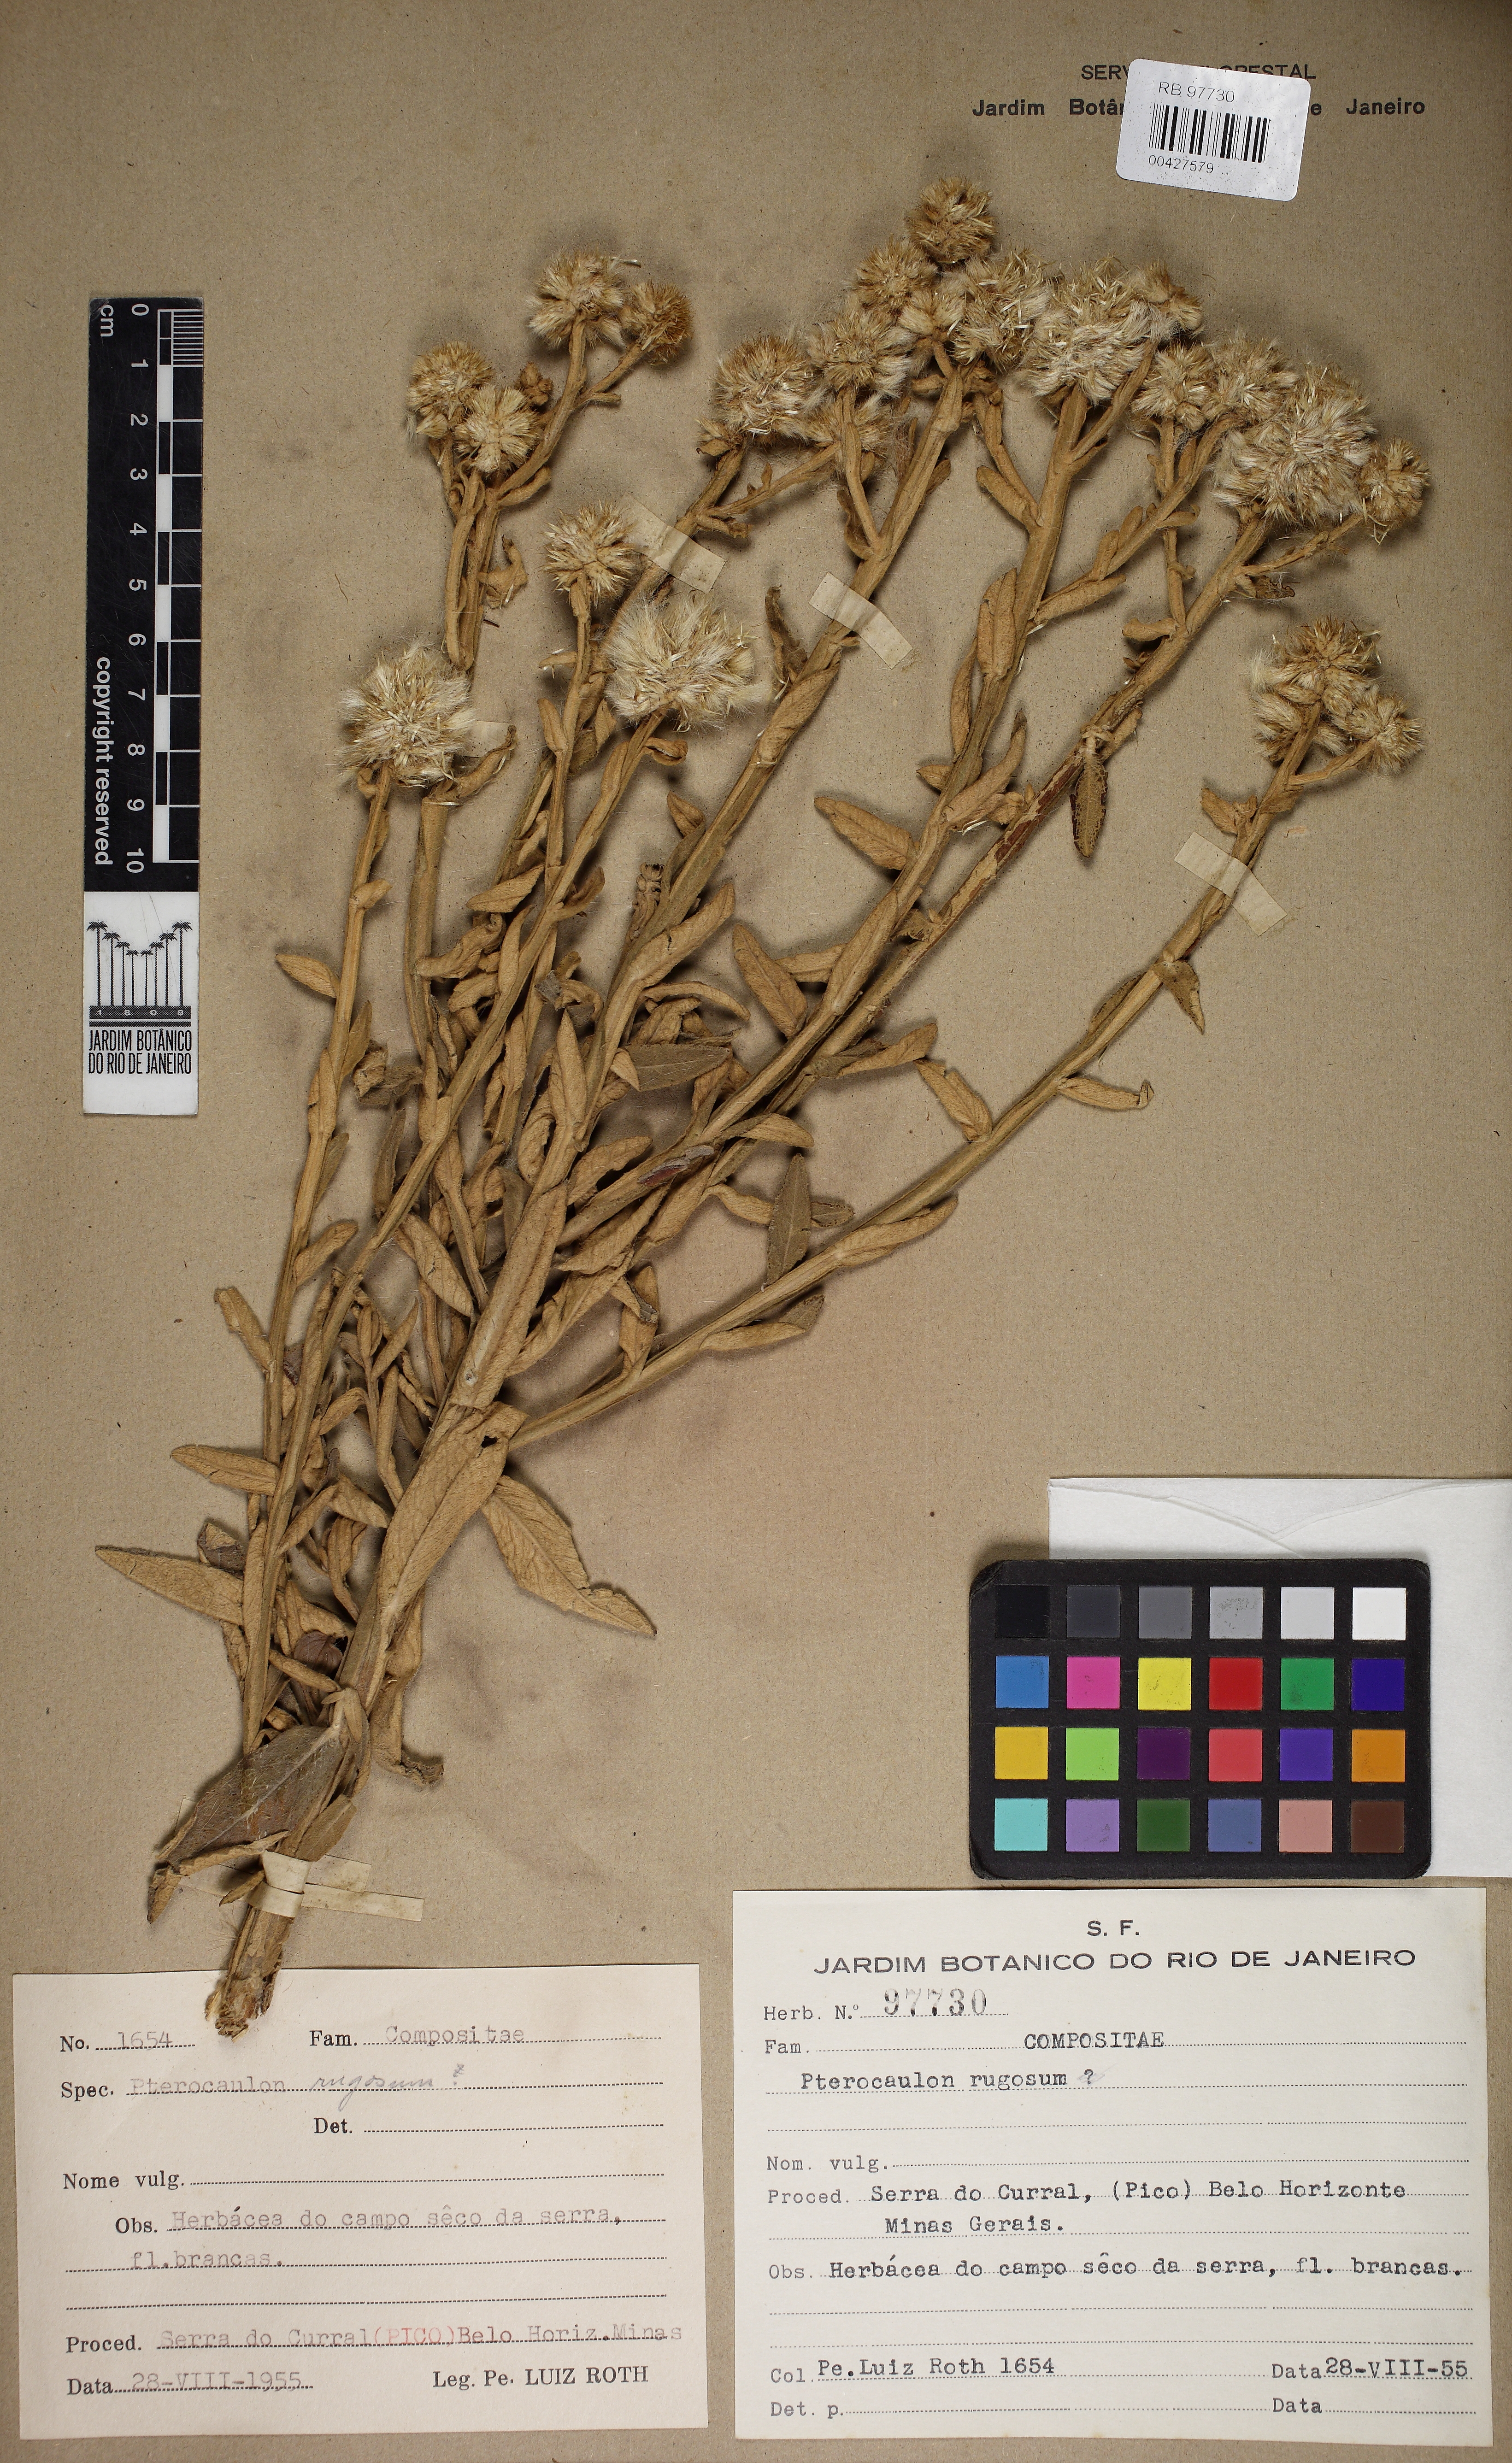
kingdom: Plantae
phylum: Tracheophyta
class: Magnoliopsida
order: Asterales
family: Asteraceae
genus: Pterocaulon
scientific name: Pterocaulon rugosum
